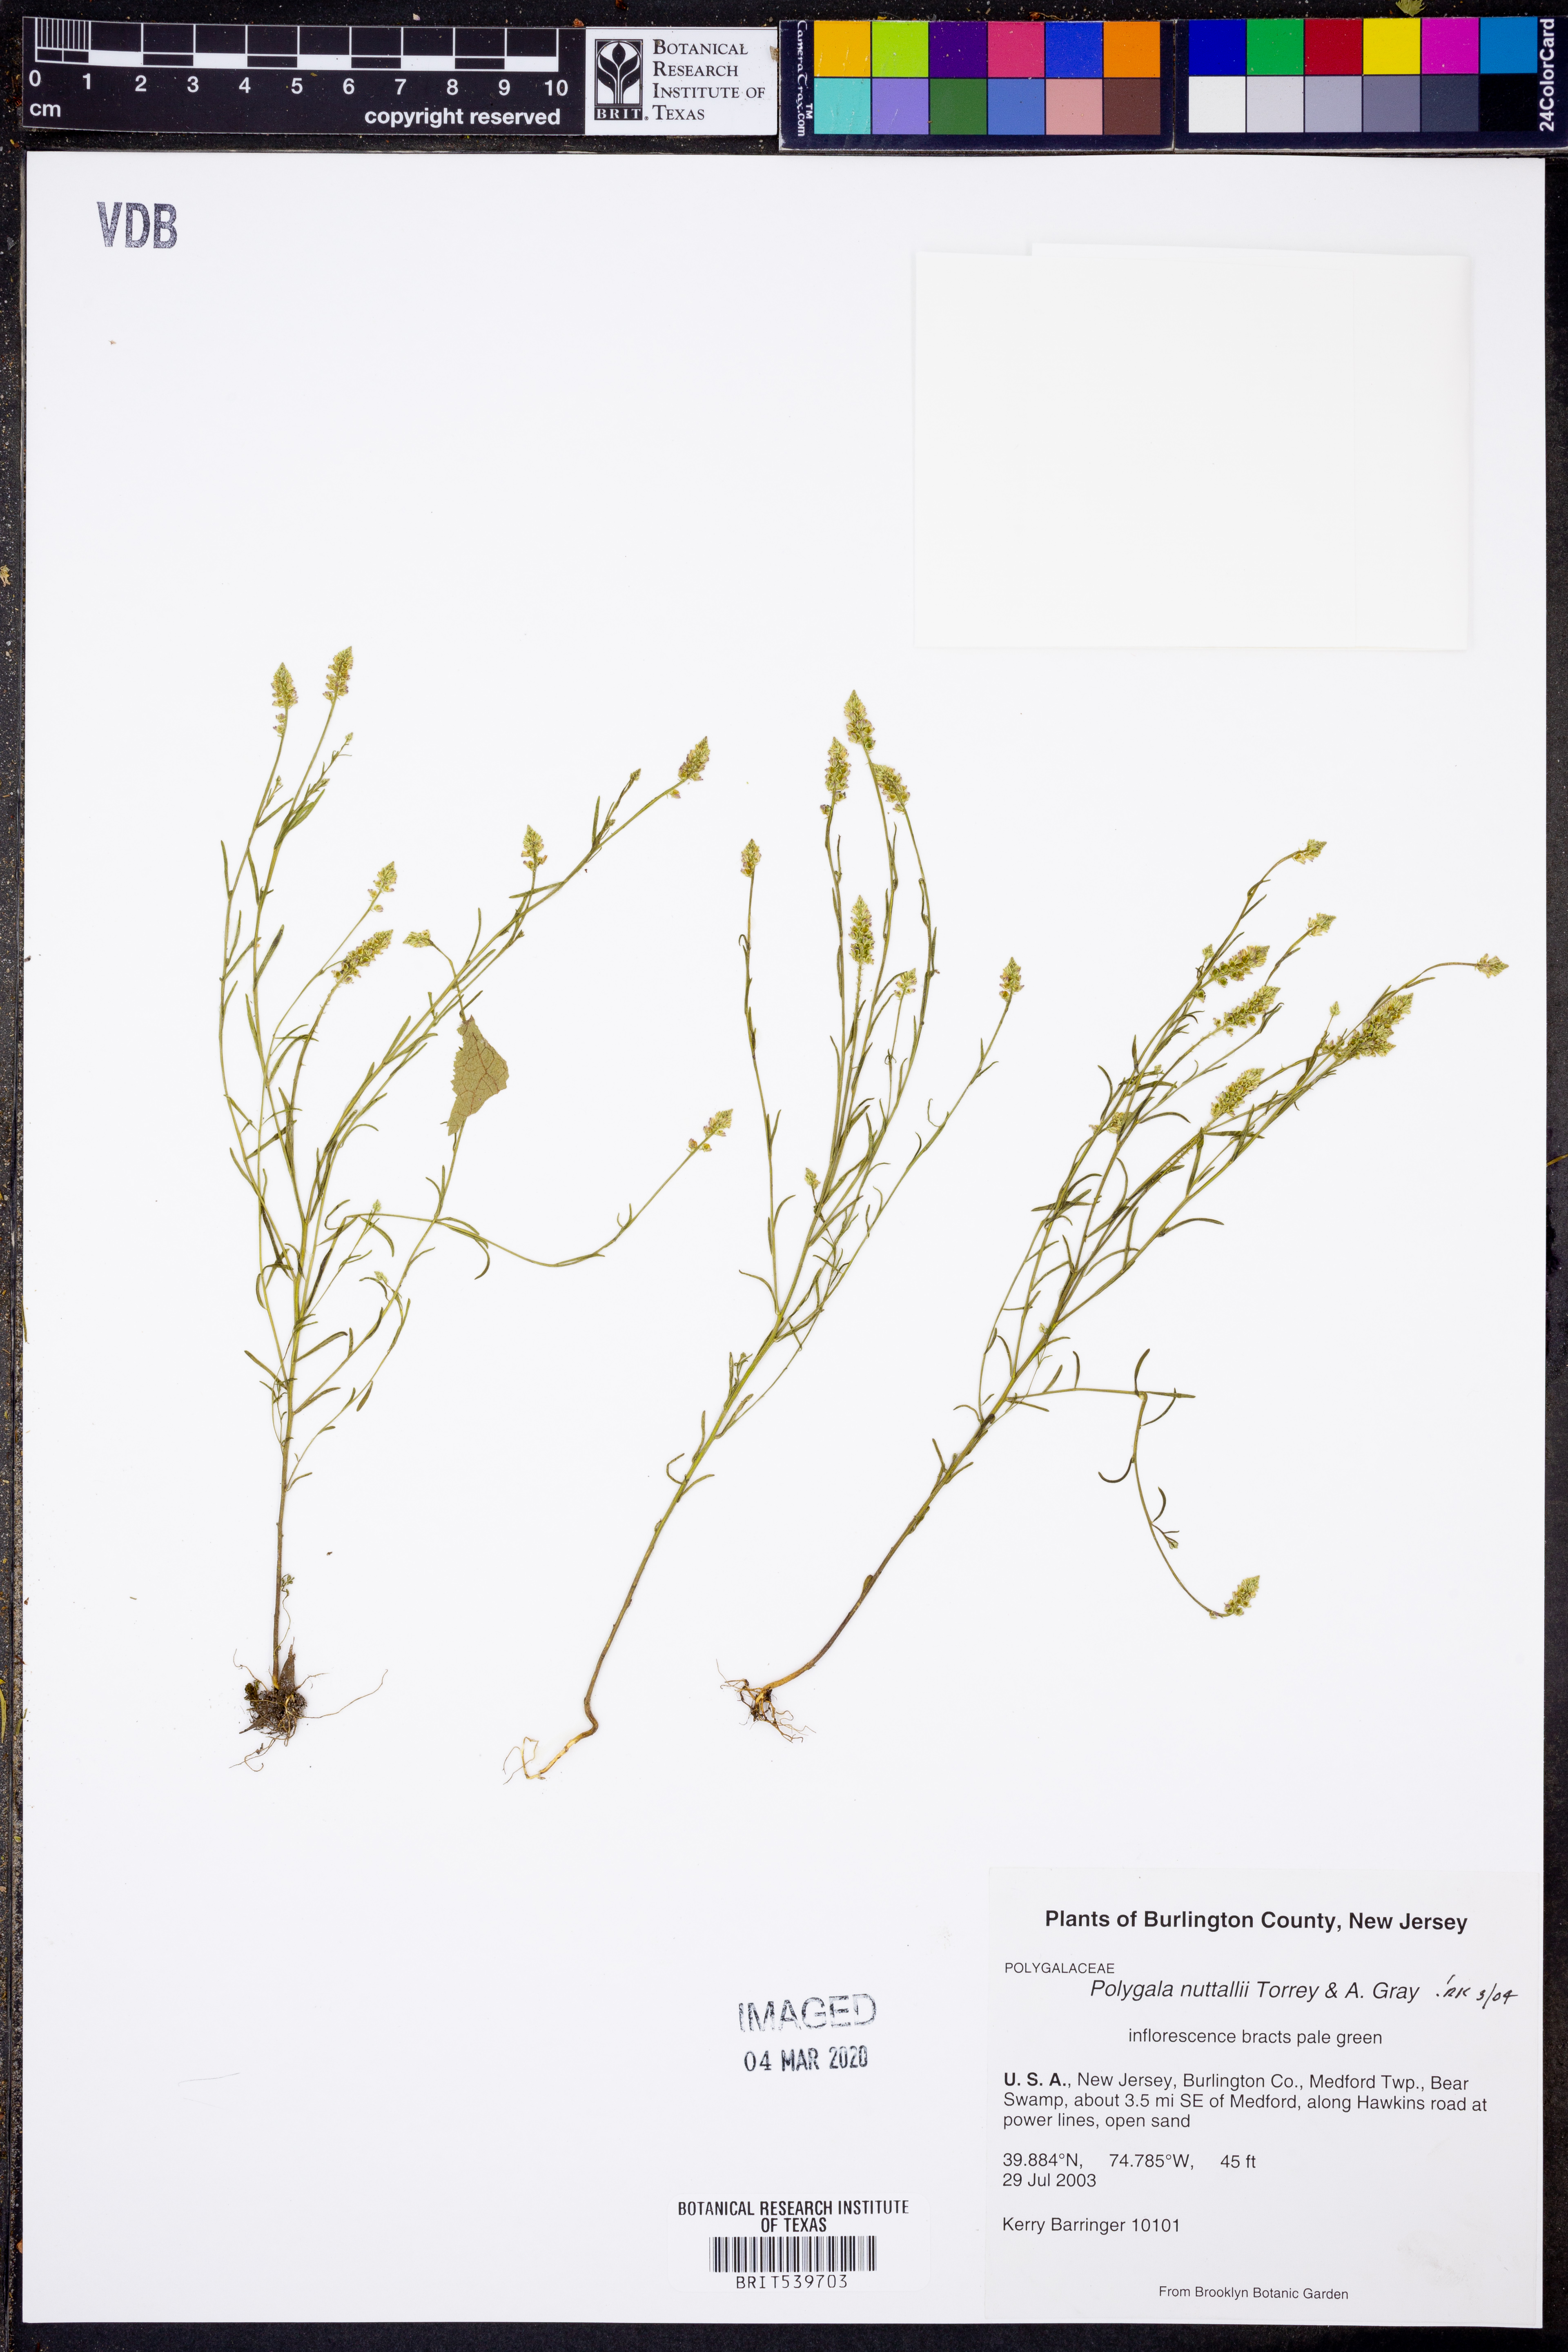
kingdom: Plantae
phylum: Tracheophyta
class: Magnoliopsida
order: Fabales
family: Polygalaceae
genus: Polygala
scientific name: Polygala nuttallii
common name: Nuttall's milkwort
